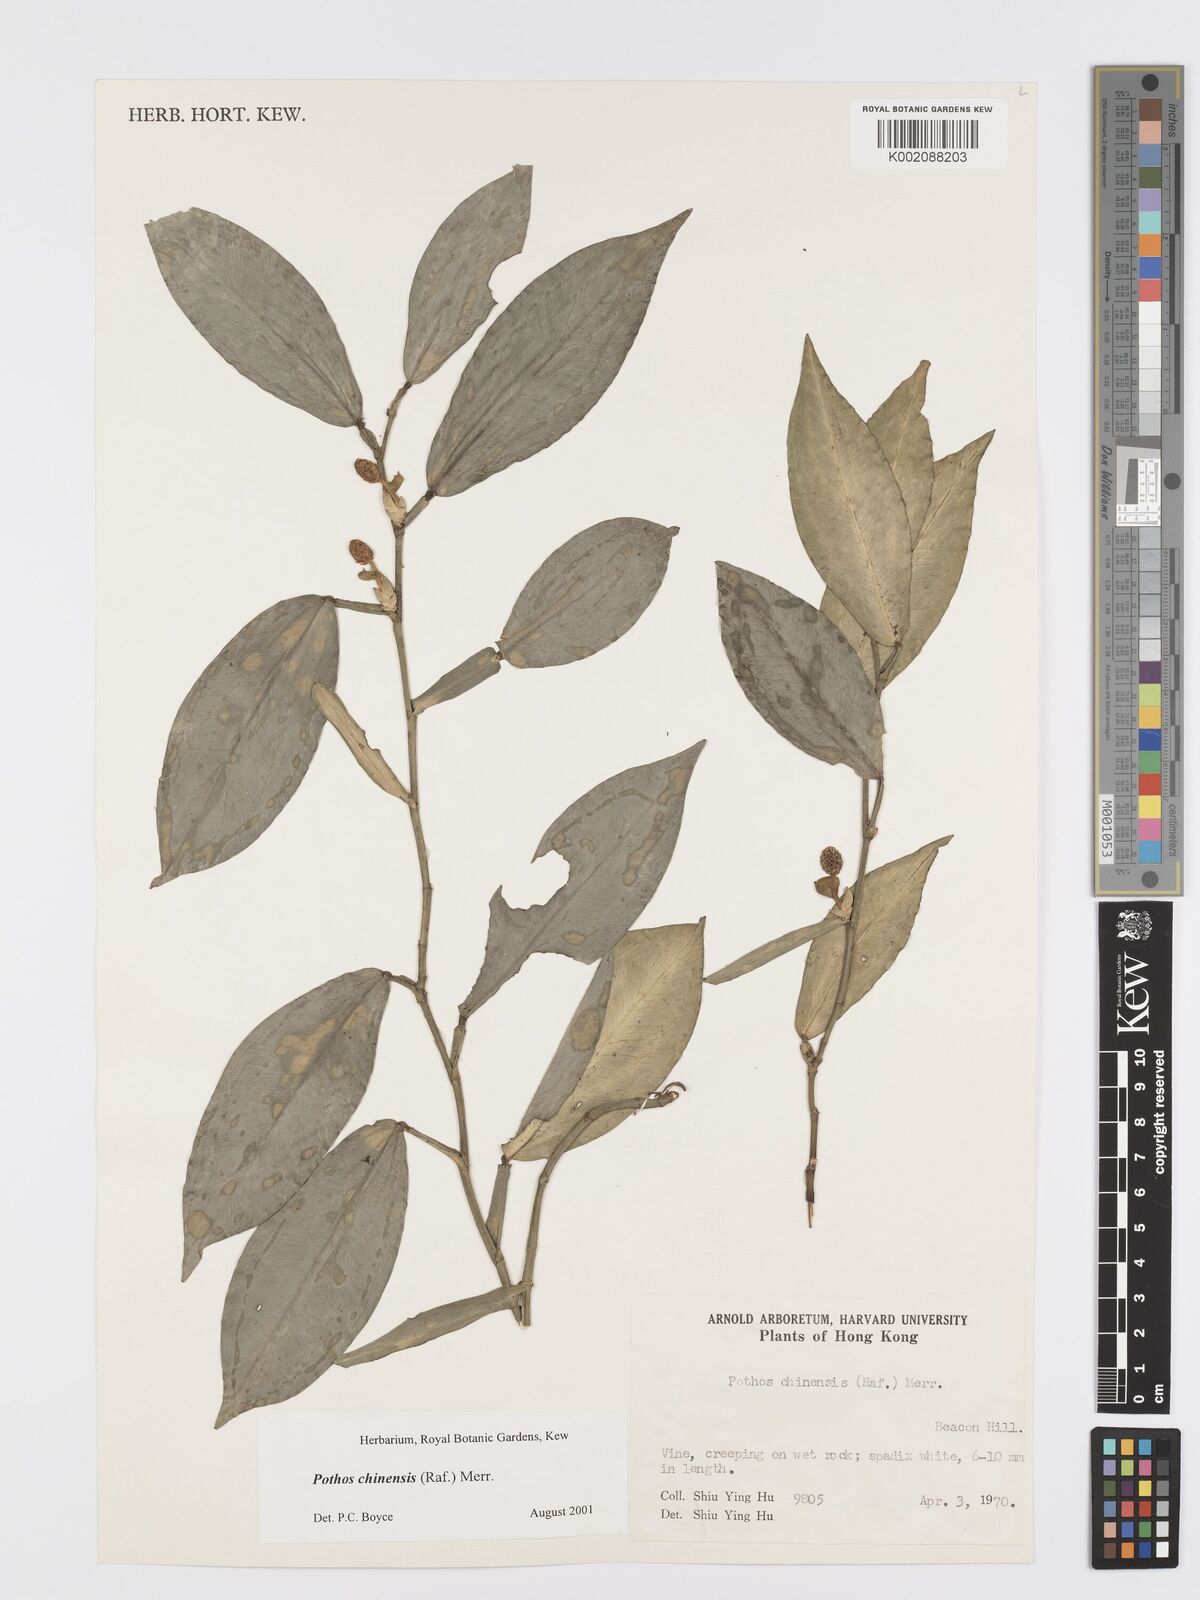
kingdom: Plantae
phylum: Tracheophyta
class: Liliopsida
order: Alismatales
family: Araceae
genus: Pothos
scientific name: Pothos chinensis
